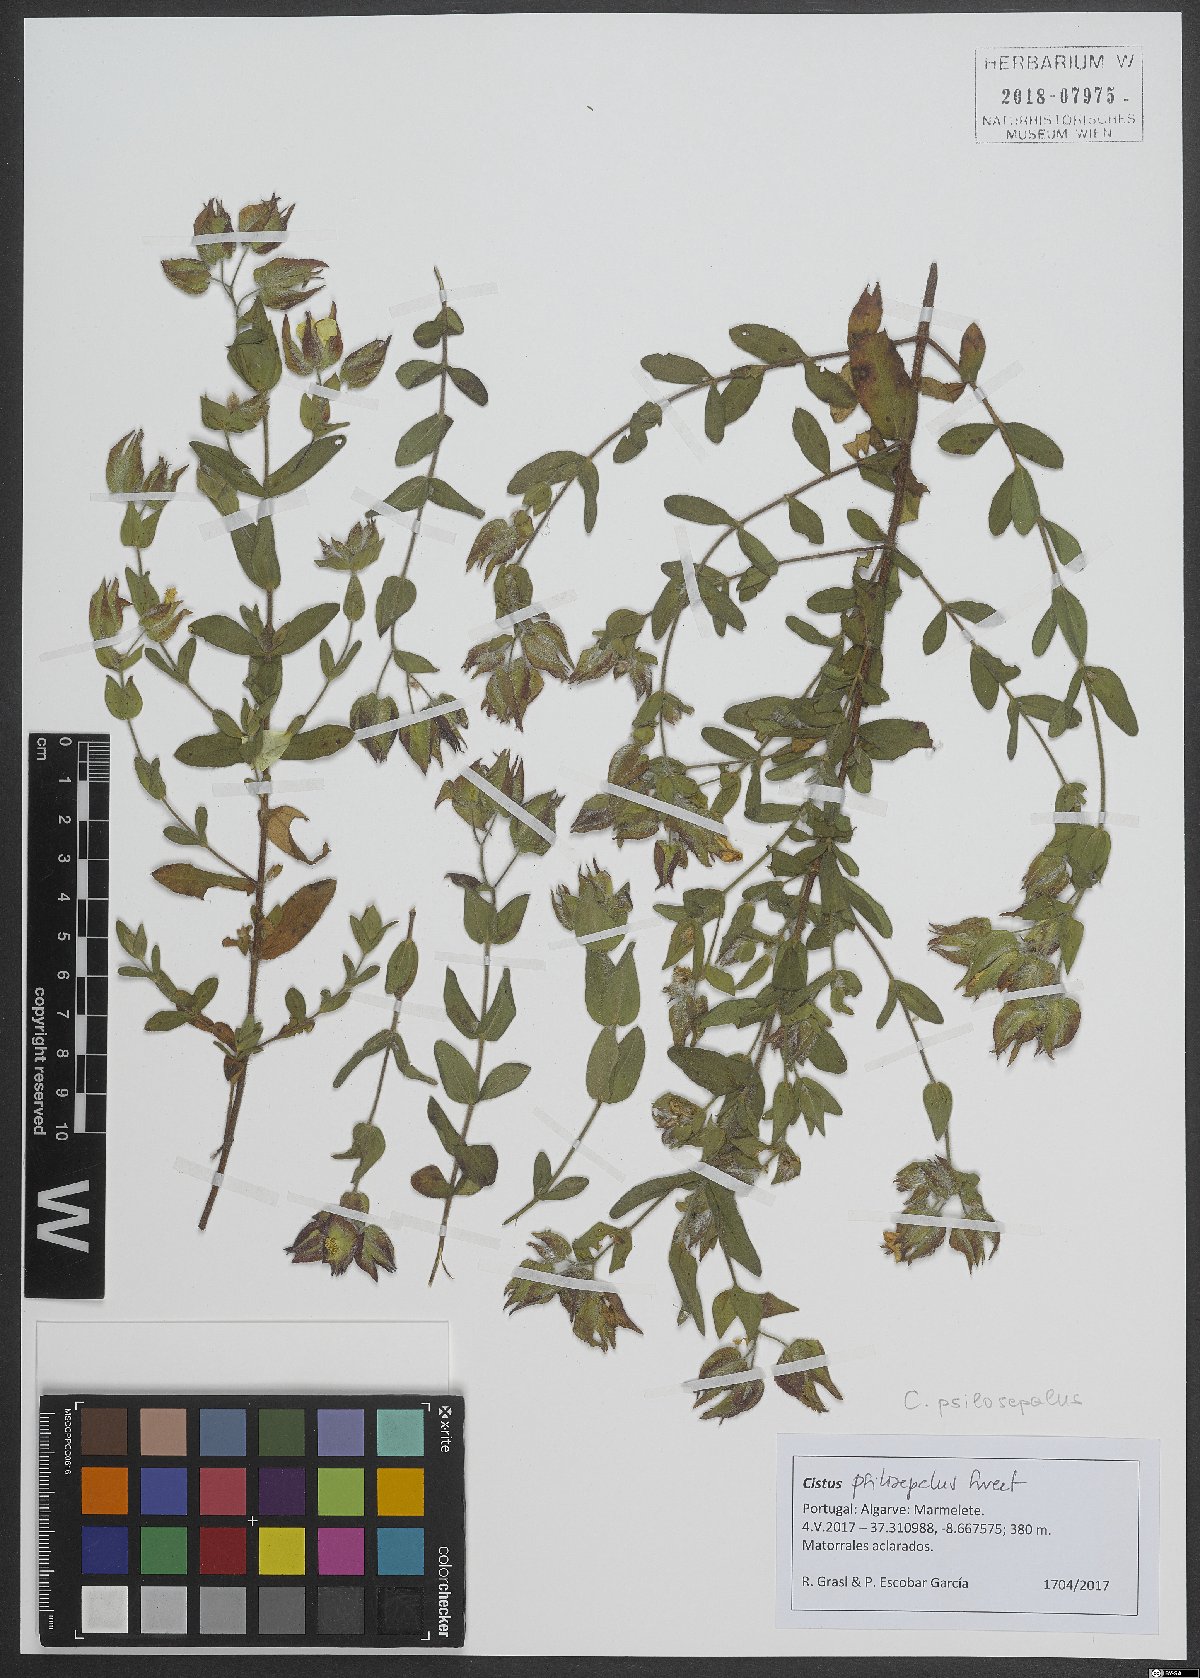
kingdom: Plantae
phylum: Tracheophyta
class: Magnoliopsida
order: Malvales
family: Cistaceae
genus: Cistus
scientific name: Cistus
